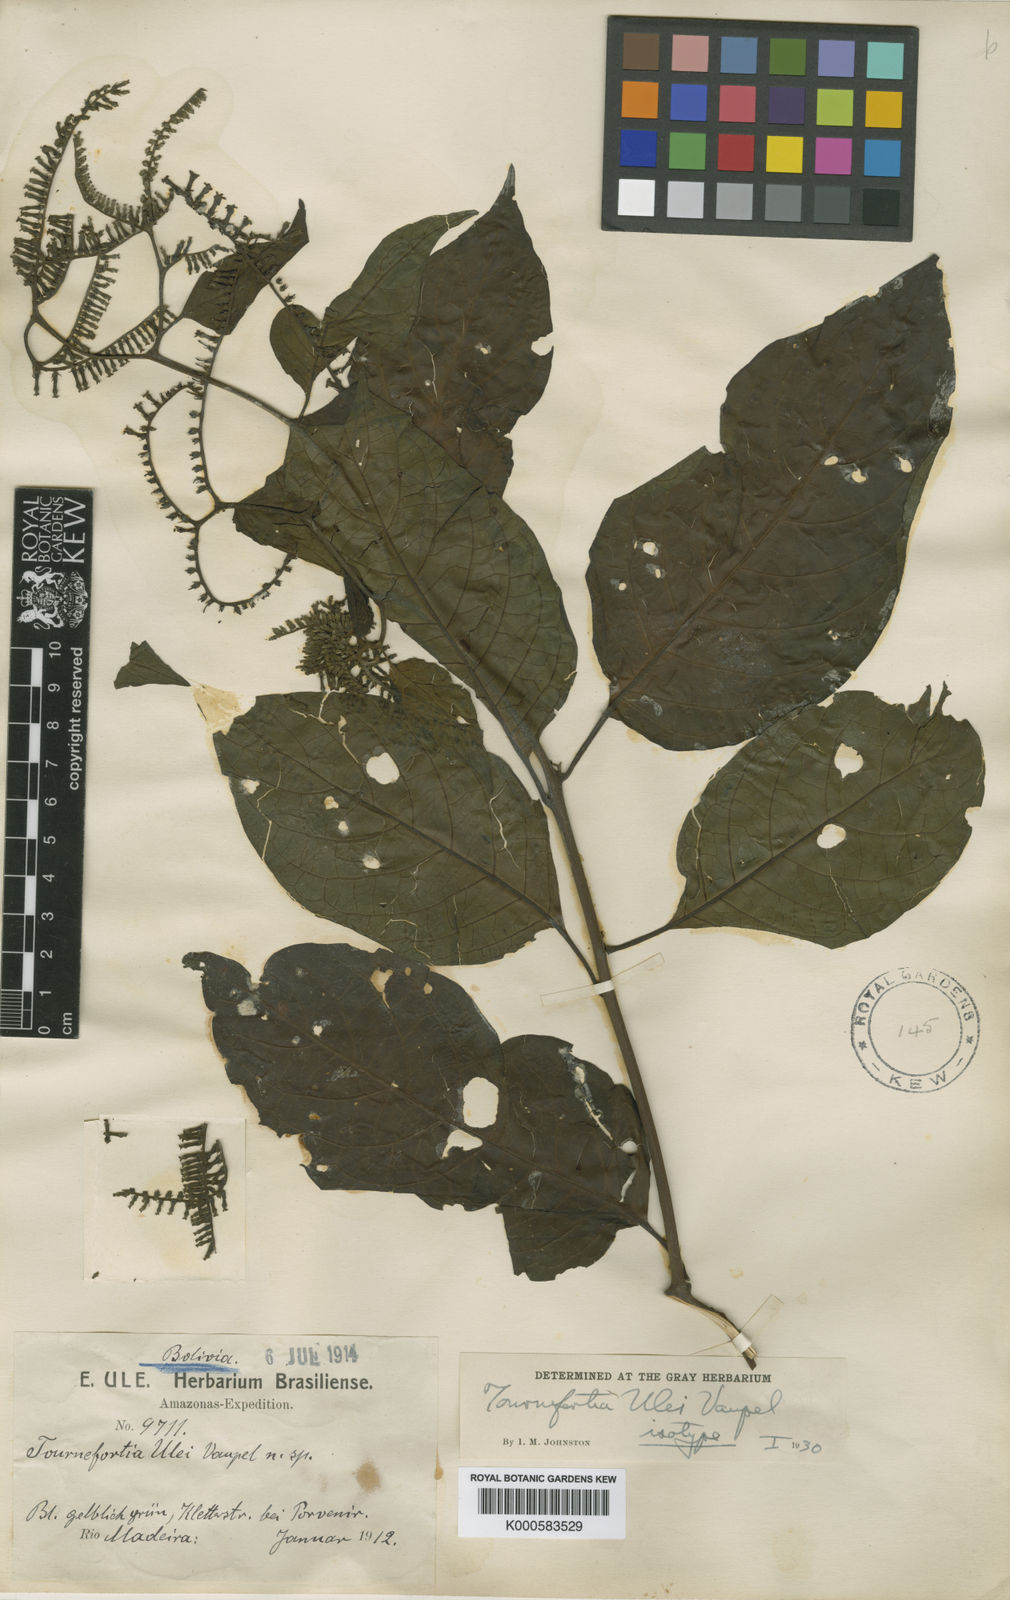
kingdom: Plantae
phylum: Tracheophyta
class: Magnoliopsida
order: Boraginales
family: Heliotropiaceae
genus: Heliotropium
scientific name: Heliotropium ulei
